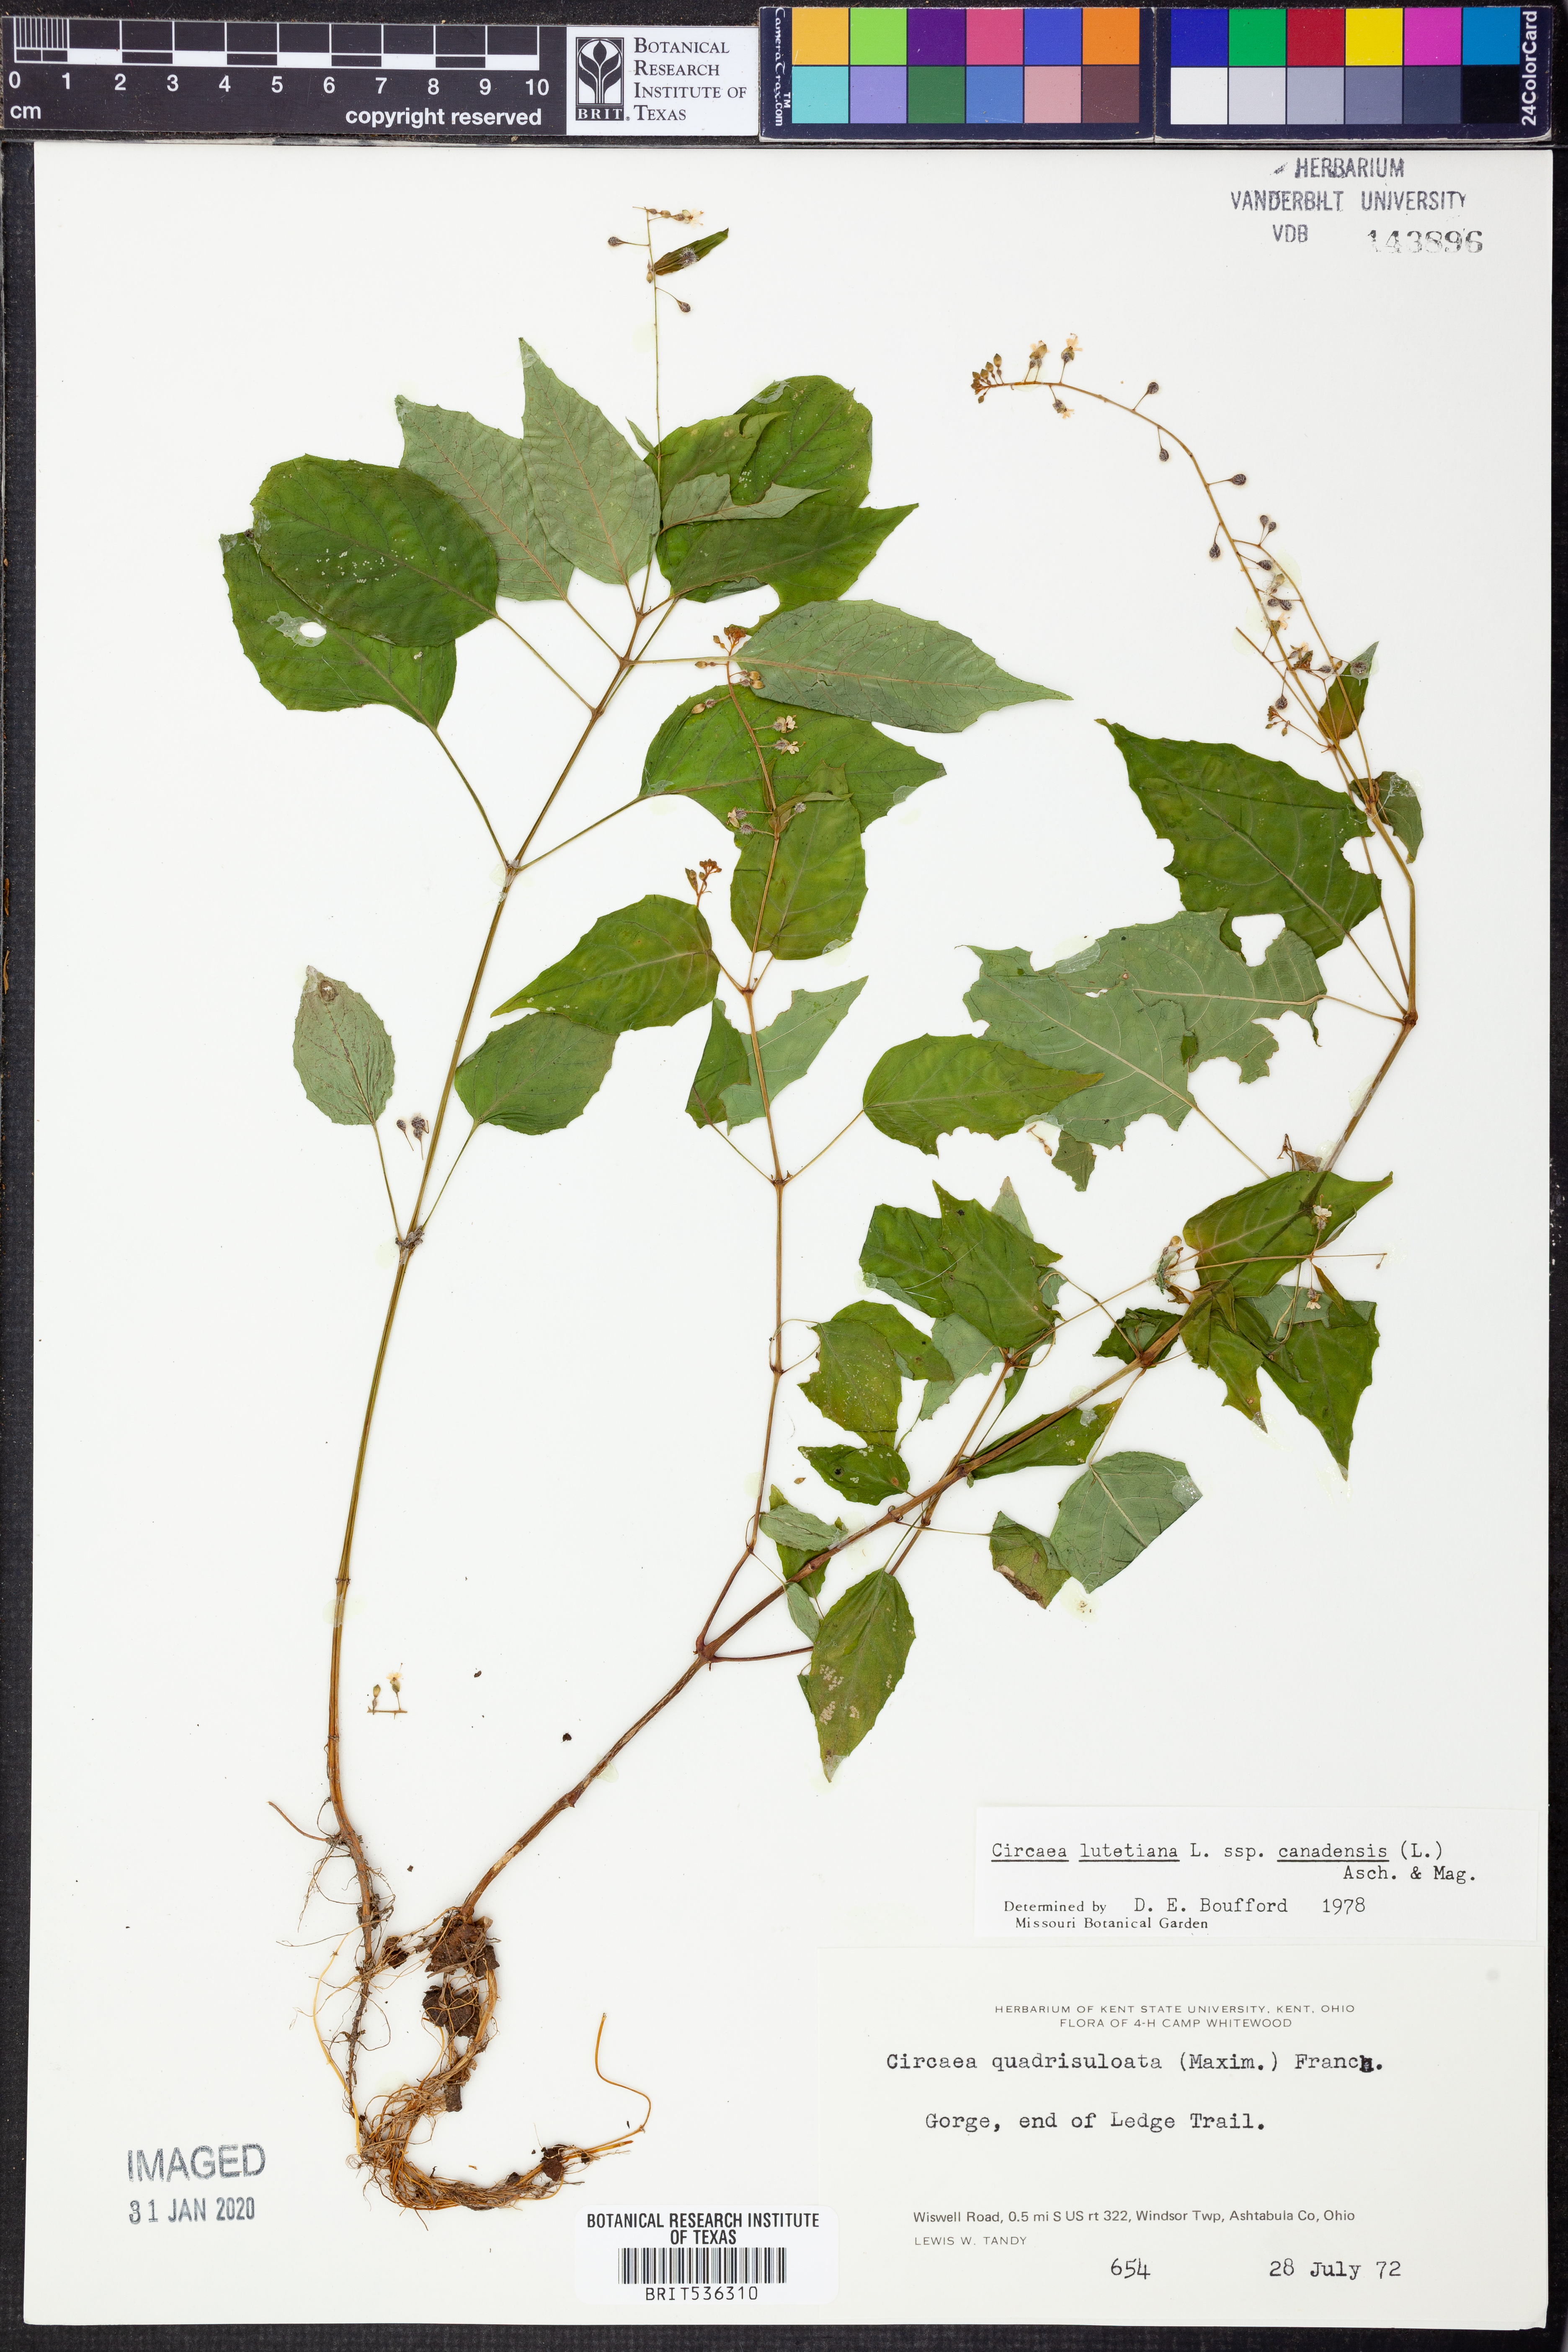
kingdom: Plantae
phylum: Tracheophyta
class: Magnoliopsida
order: Myrtales
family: Onagraceae
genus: Circaea
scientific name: Circaea canadensis
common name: Broad-leaved enchanter's nightshade
